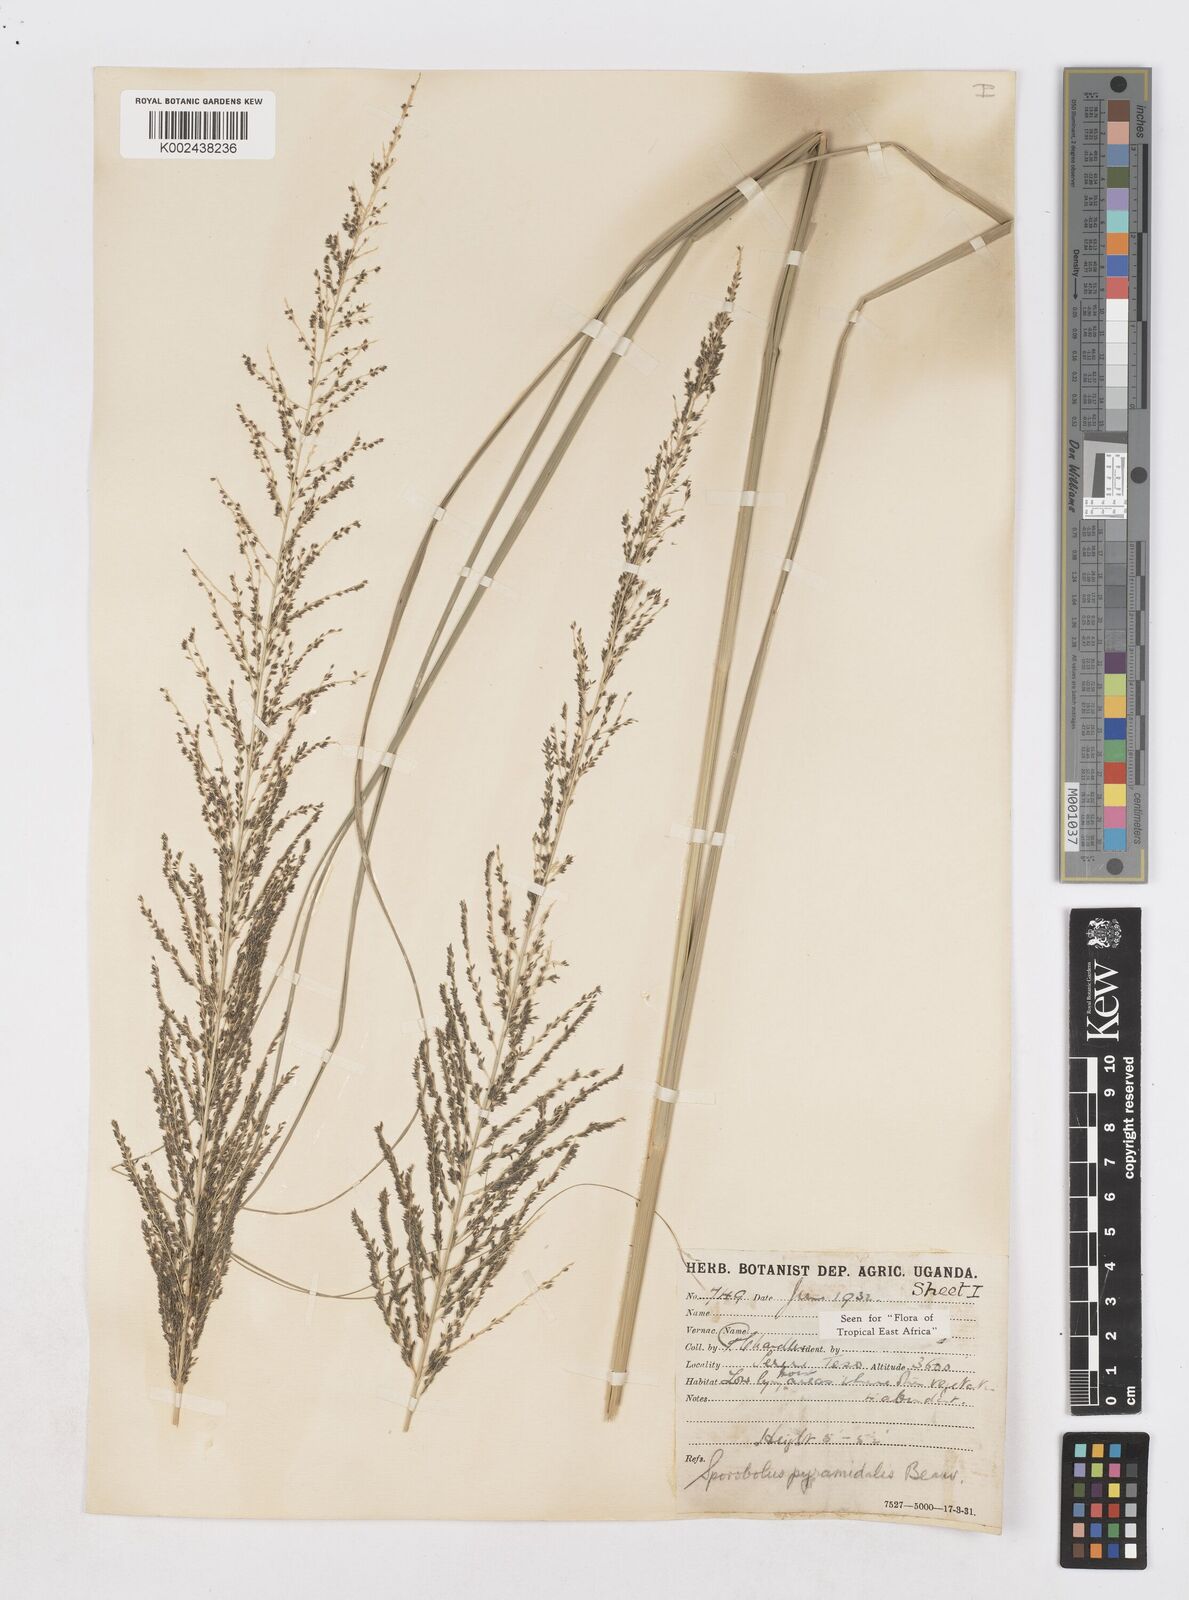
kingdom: Plantae
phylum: Tracheophyta
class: Liliopsida
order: Poales
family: Poaceae
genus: Sporobolus
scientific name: Sporobolus pyramidalis
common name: West indian dropseed
